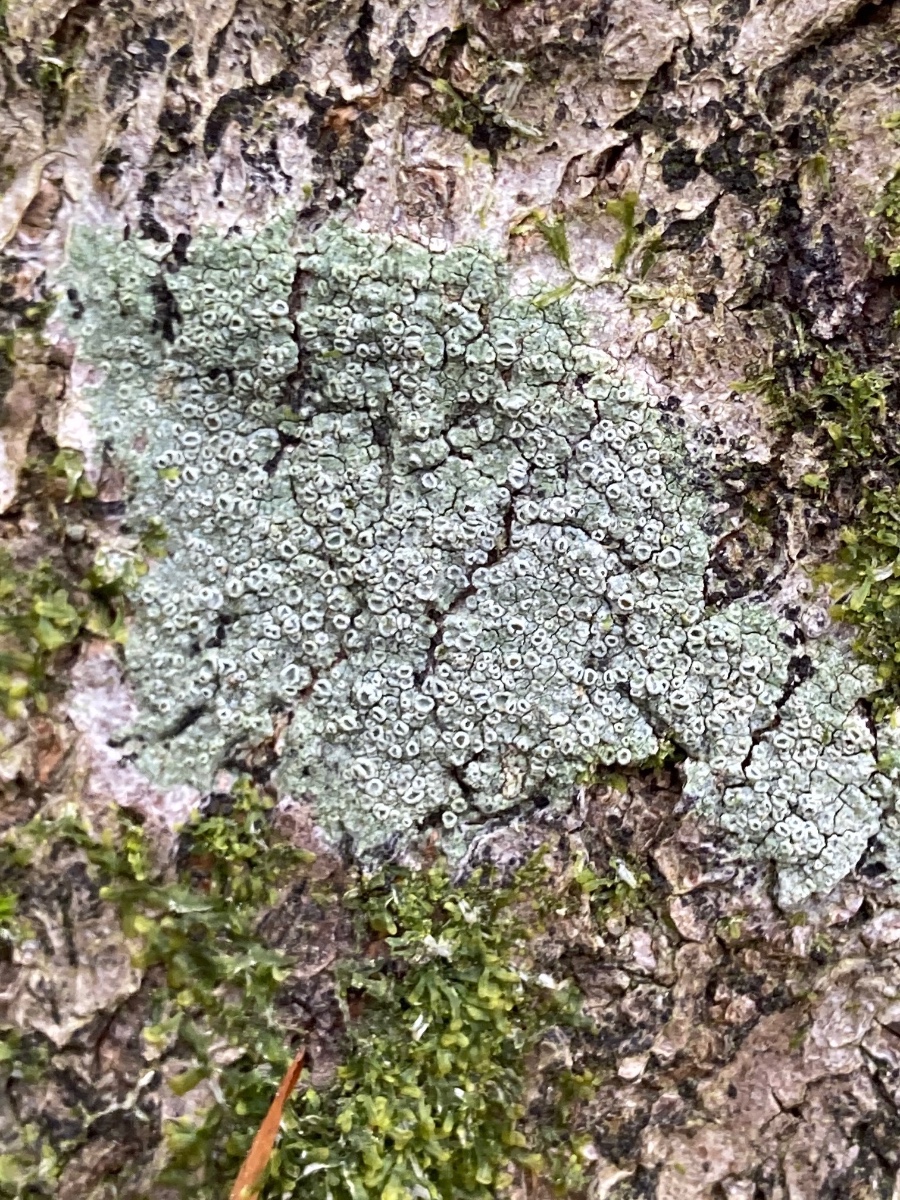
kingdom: Fungi
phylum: Ascomycota
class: Lecanoromycetes
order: Pertusariales
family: Pertusariaceae
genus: Pertusaria
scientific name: Pertusaria hymenea
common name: åben prikvortelav
